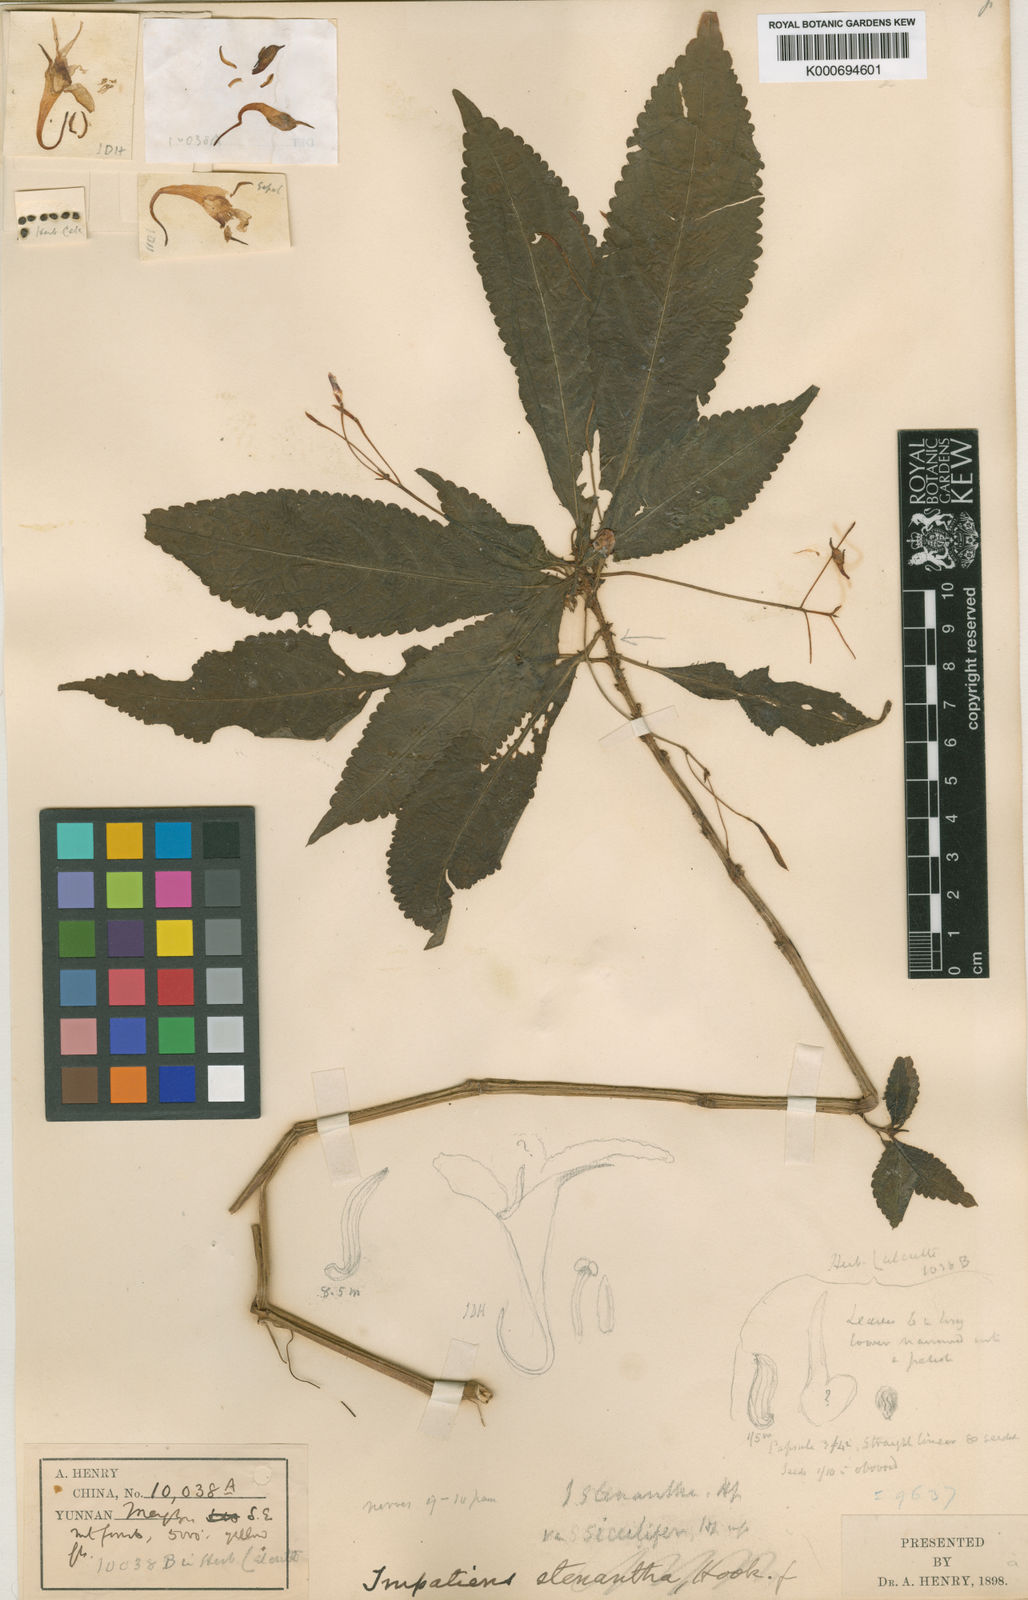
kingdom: Plantae
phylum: Tracheophyta
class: Magnoliopsida
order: Ericales
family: Balsaminaceae
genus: Impatiens
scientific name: Impatiens siculifera
